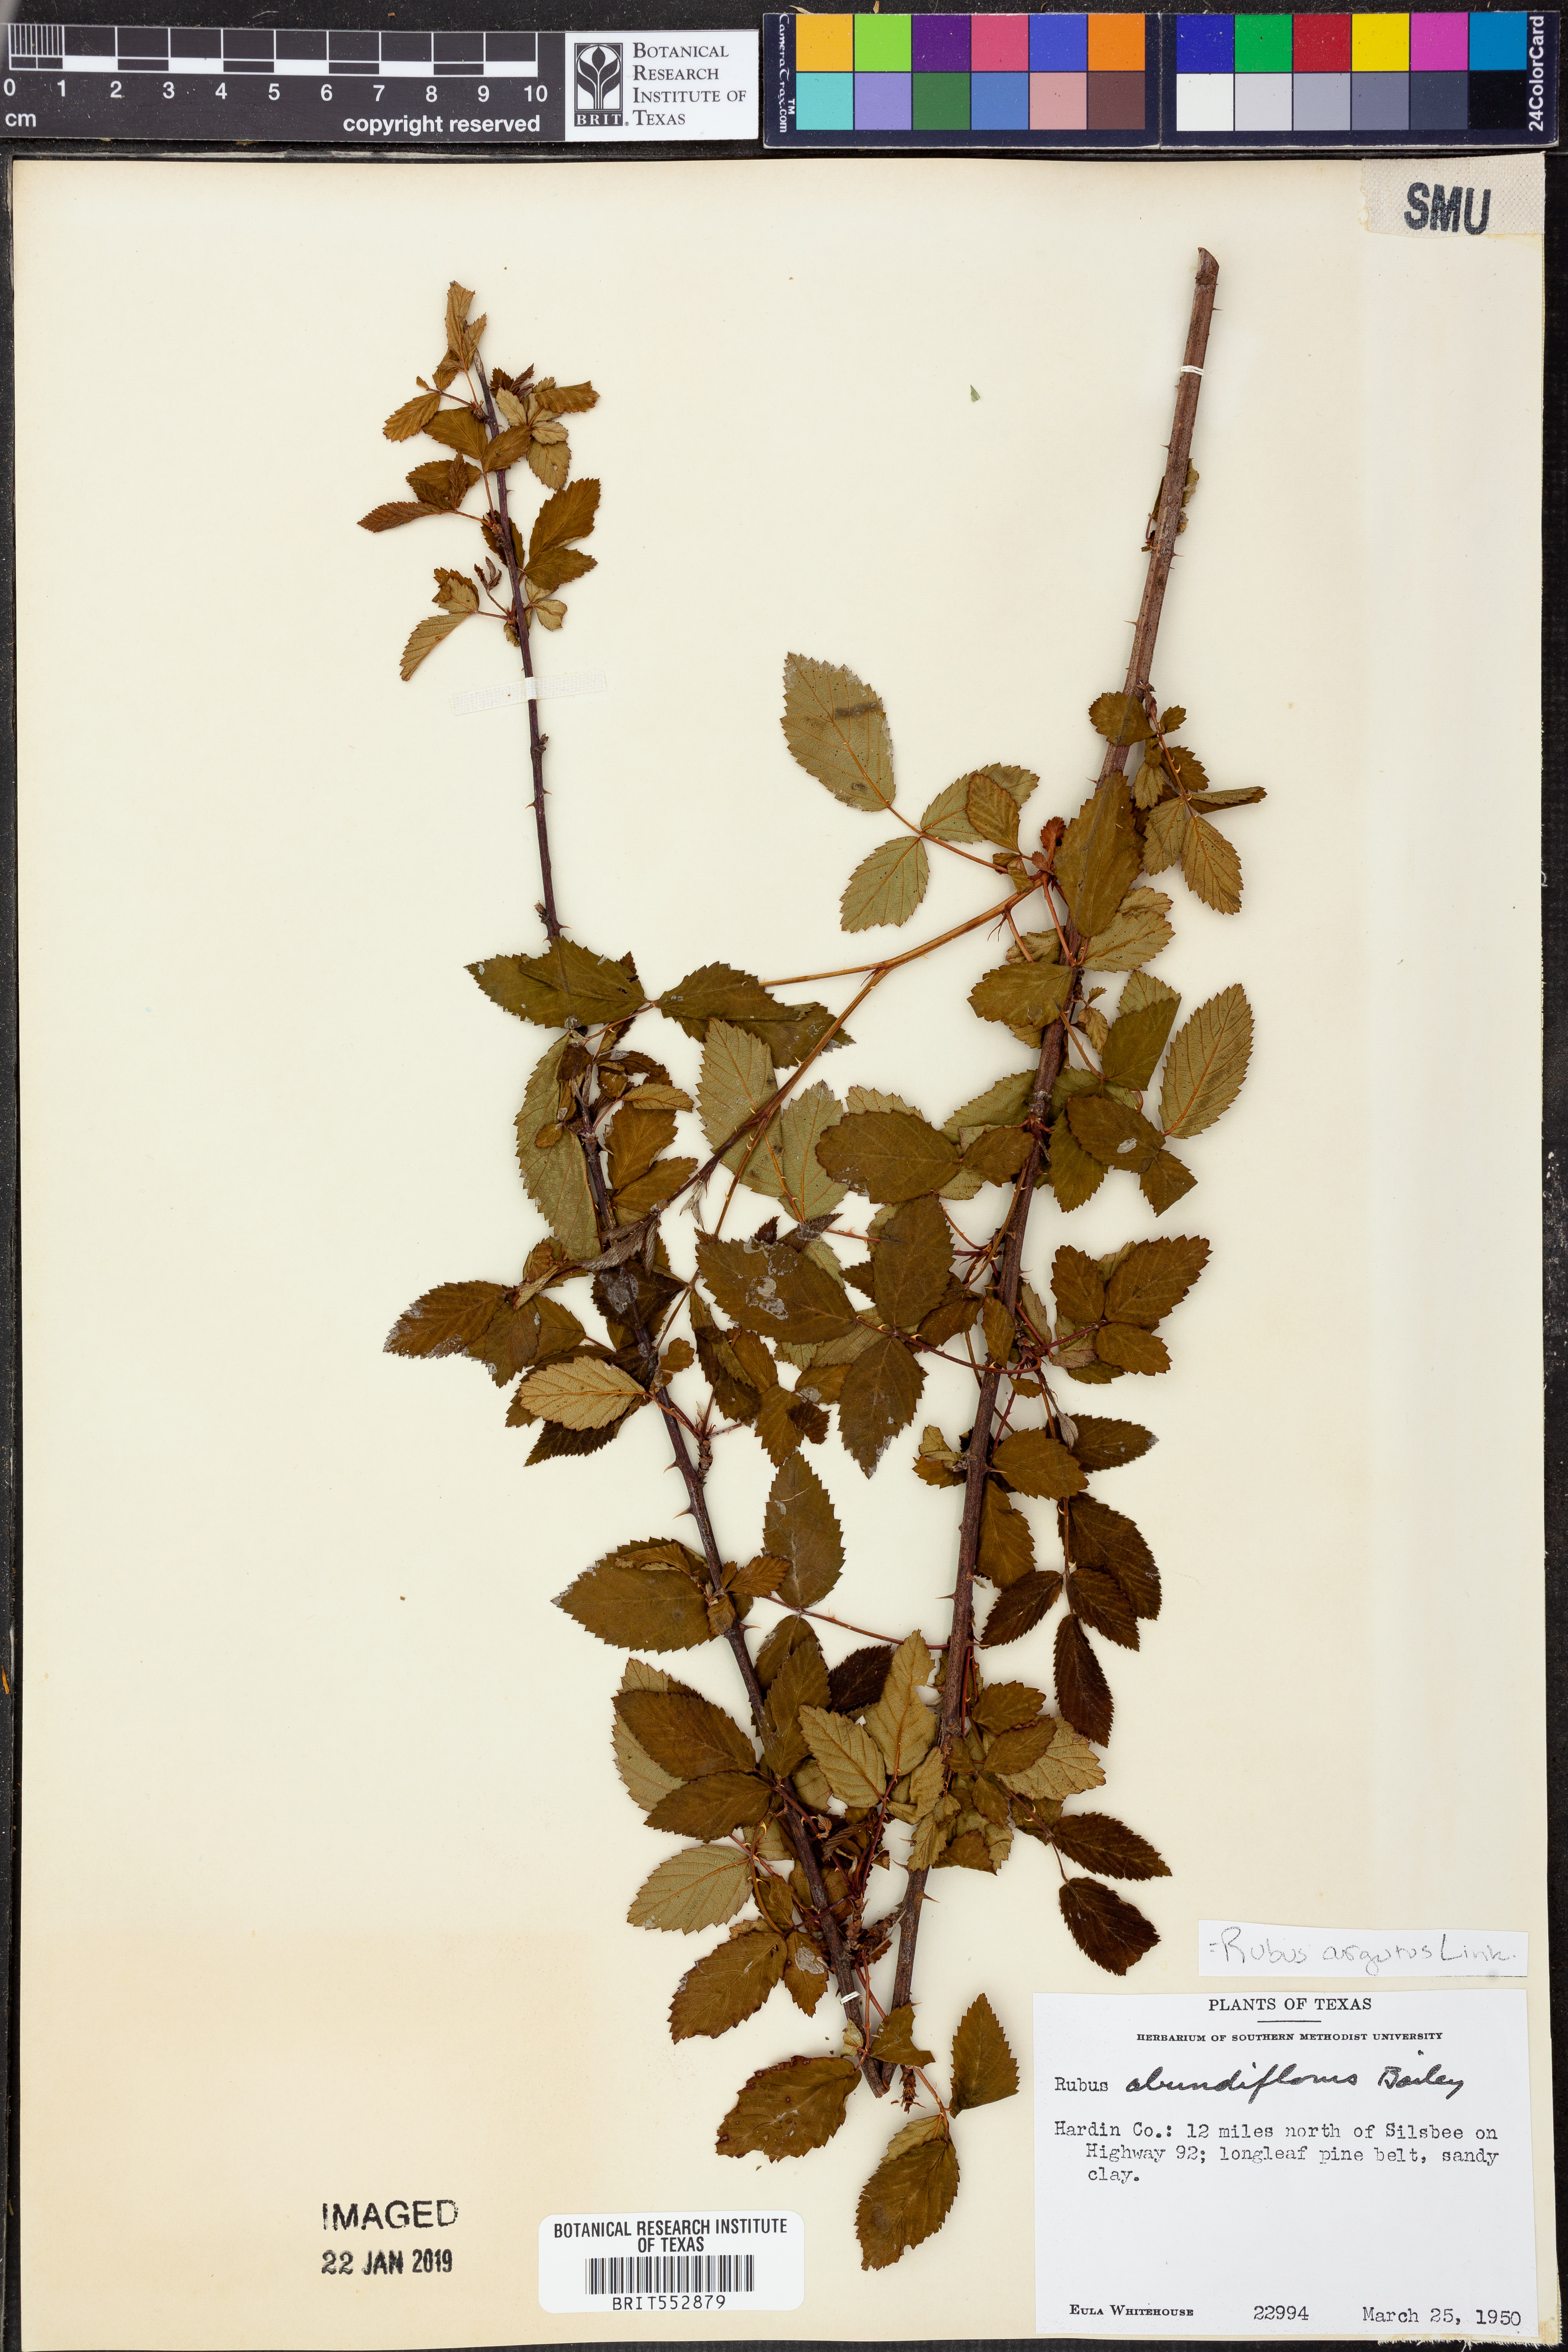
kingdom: Plantae
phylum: Tracheophyta
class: Magnoliopsida
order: Rosales
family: Rosaceae
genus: Rubus
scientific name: Rubus argutus
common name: Sawtooth blackberry
